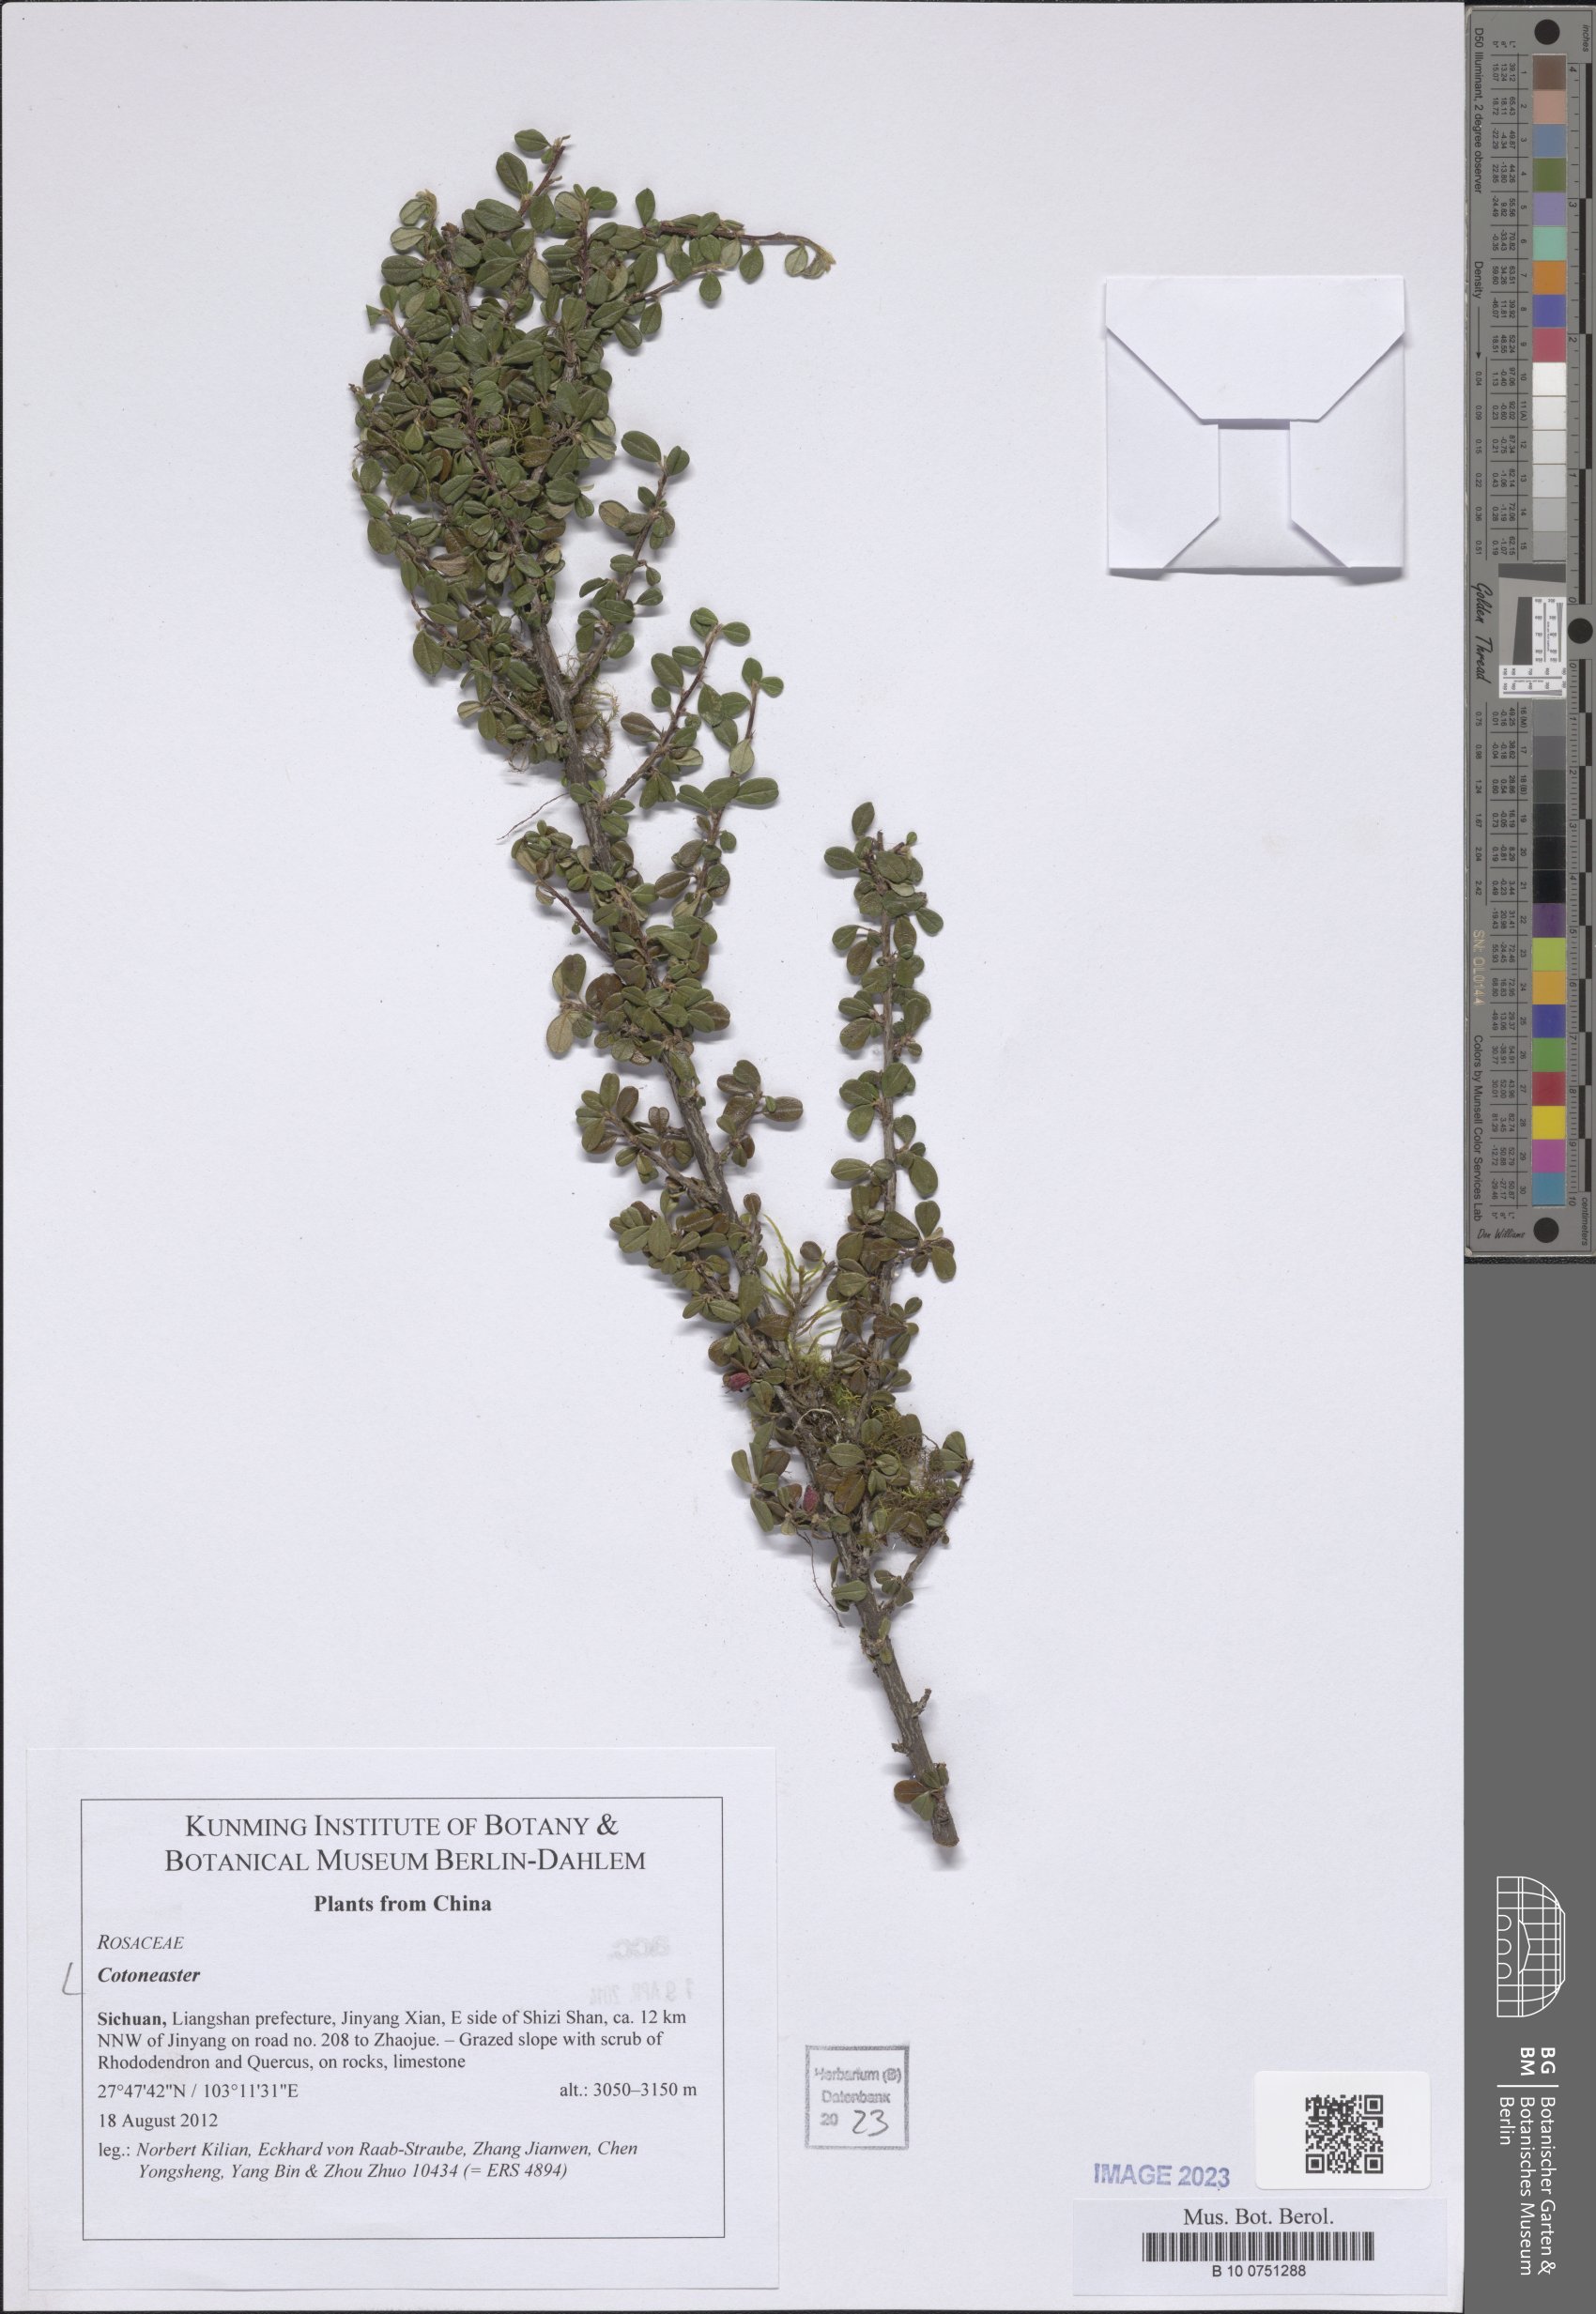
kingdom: Plantae
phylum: Tracheophyta
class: Magnoliopsida
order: Rosales
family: Rosaceae
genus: Cotoneaster
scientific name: Cotoneaster
